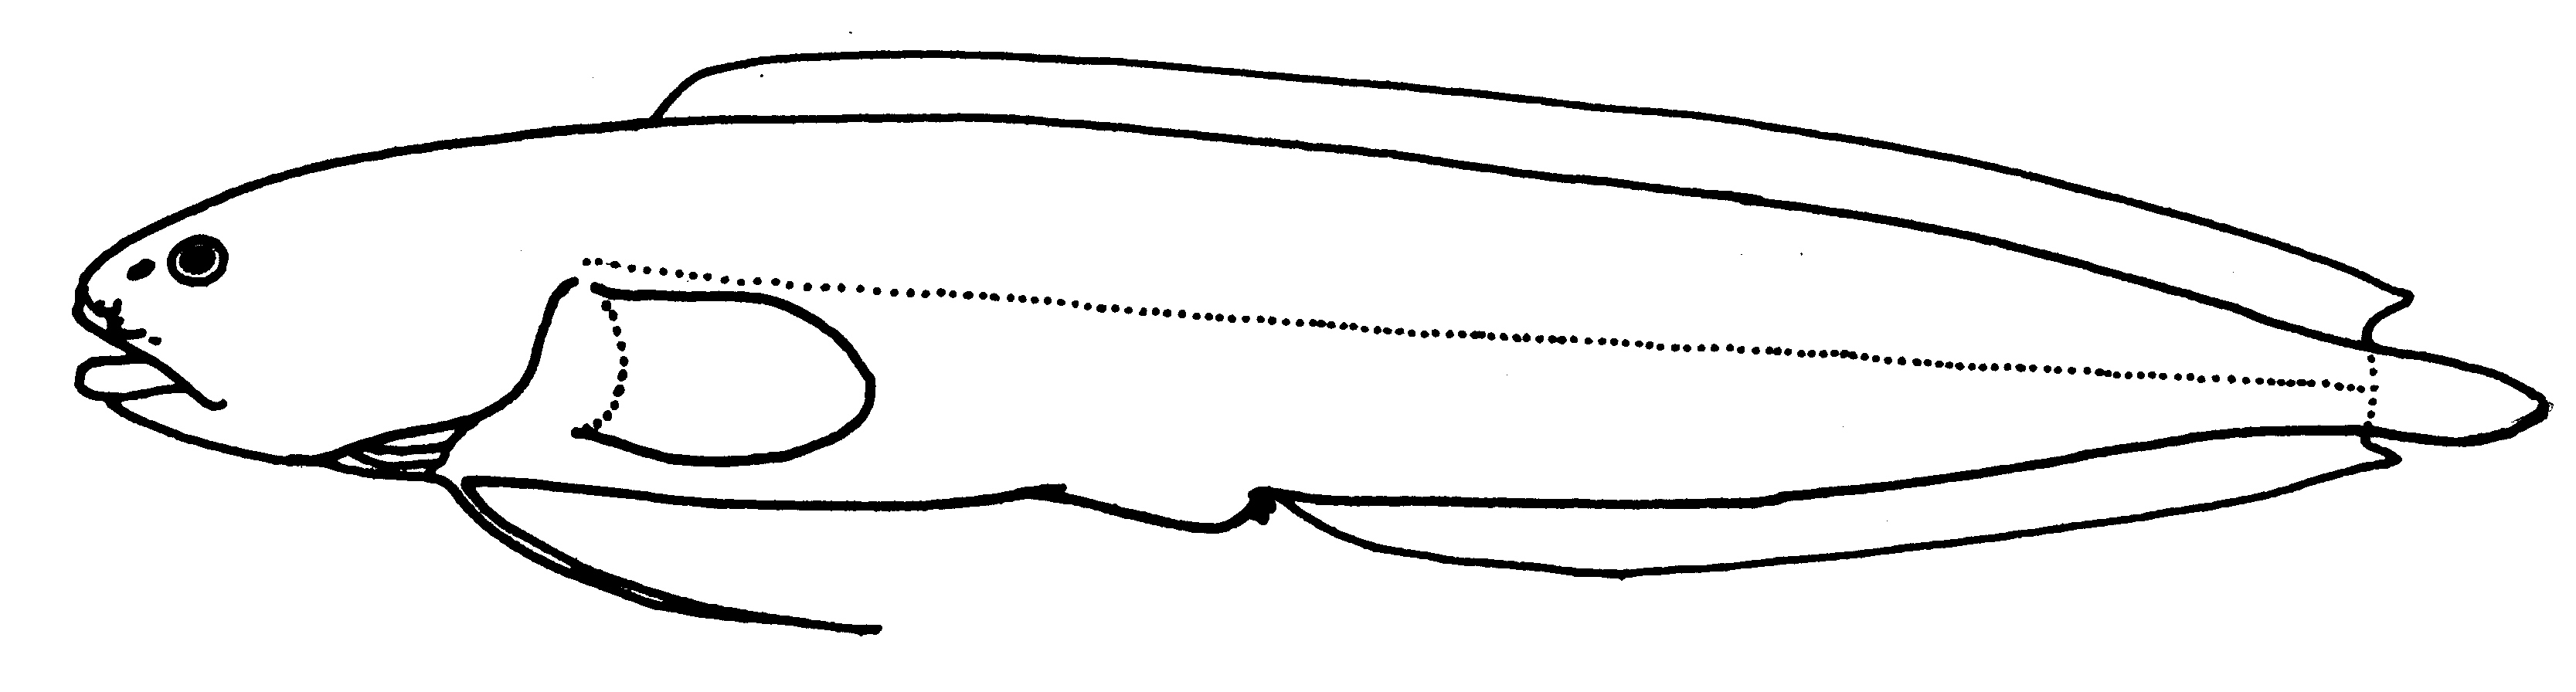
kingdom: Animalia
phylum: Chordata
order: Ophidiiformes
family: Bythitidae
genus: Dermatopsoides
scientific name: Dermatopsoides kasougae
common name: Orange brotula
